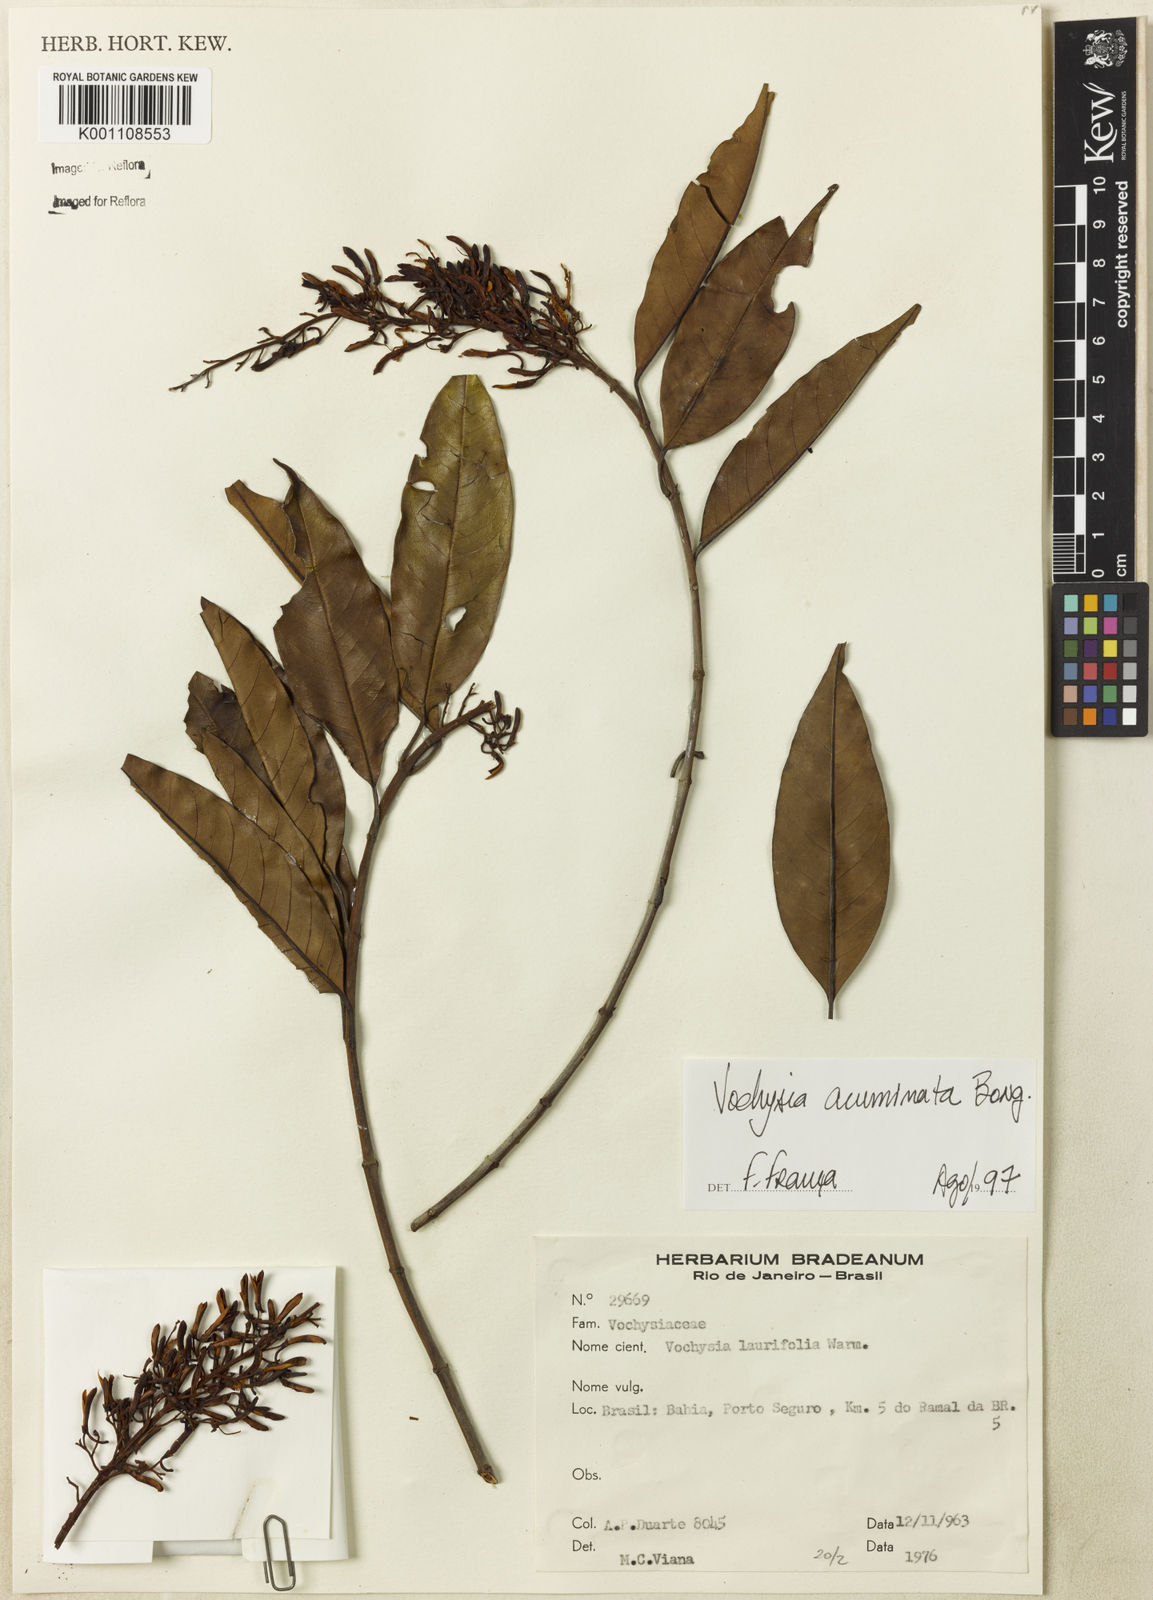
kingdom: Plantae
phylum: Tracheophyta
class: Magnoliopsida
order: Myrtales
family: Vochysiaceae
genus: Vochysia
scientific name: Vochysia acuminata
